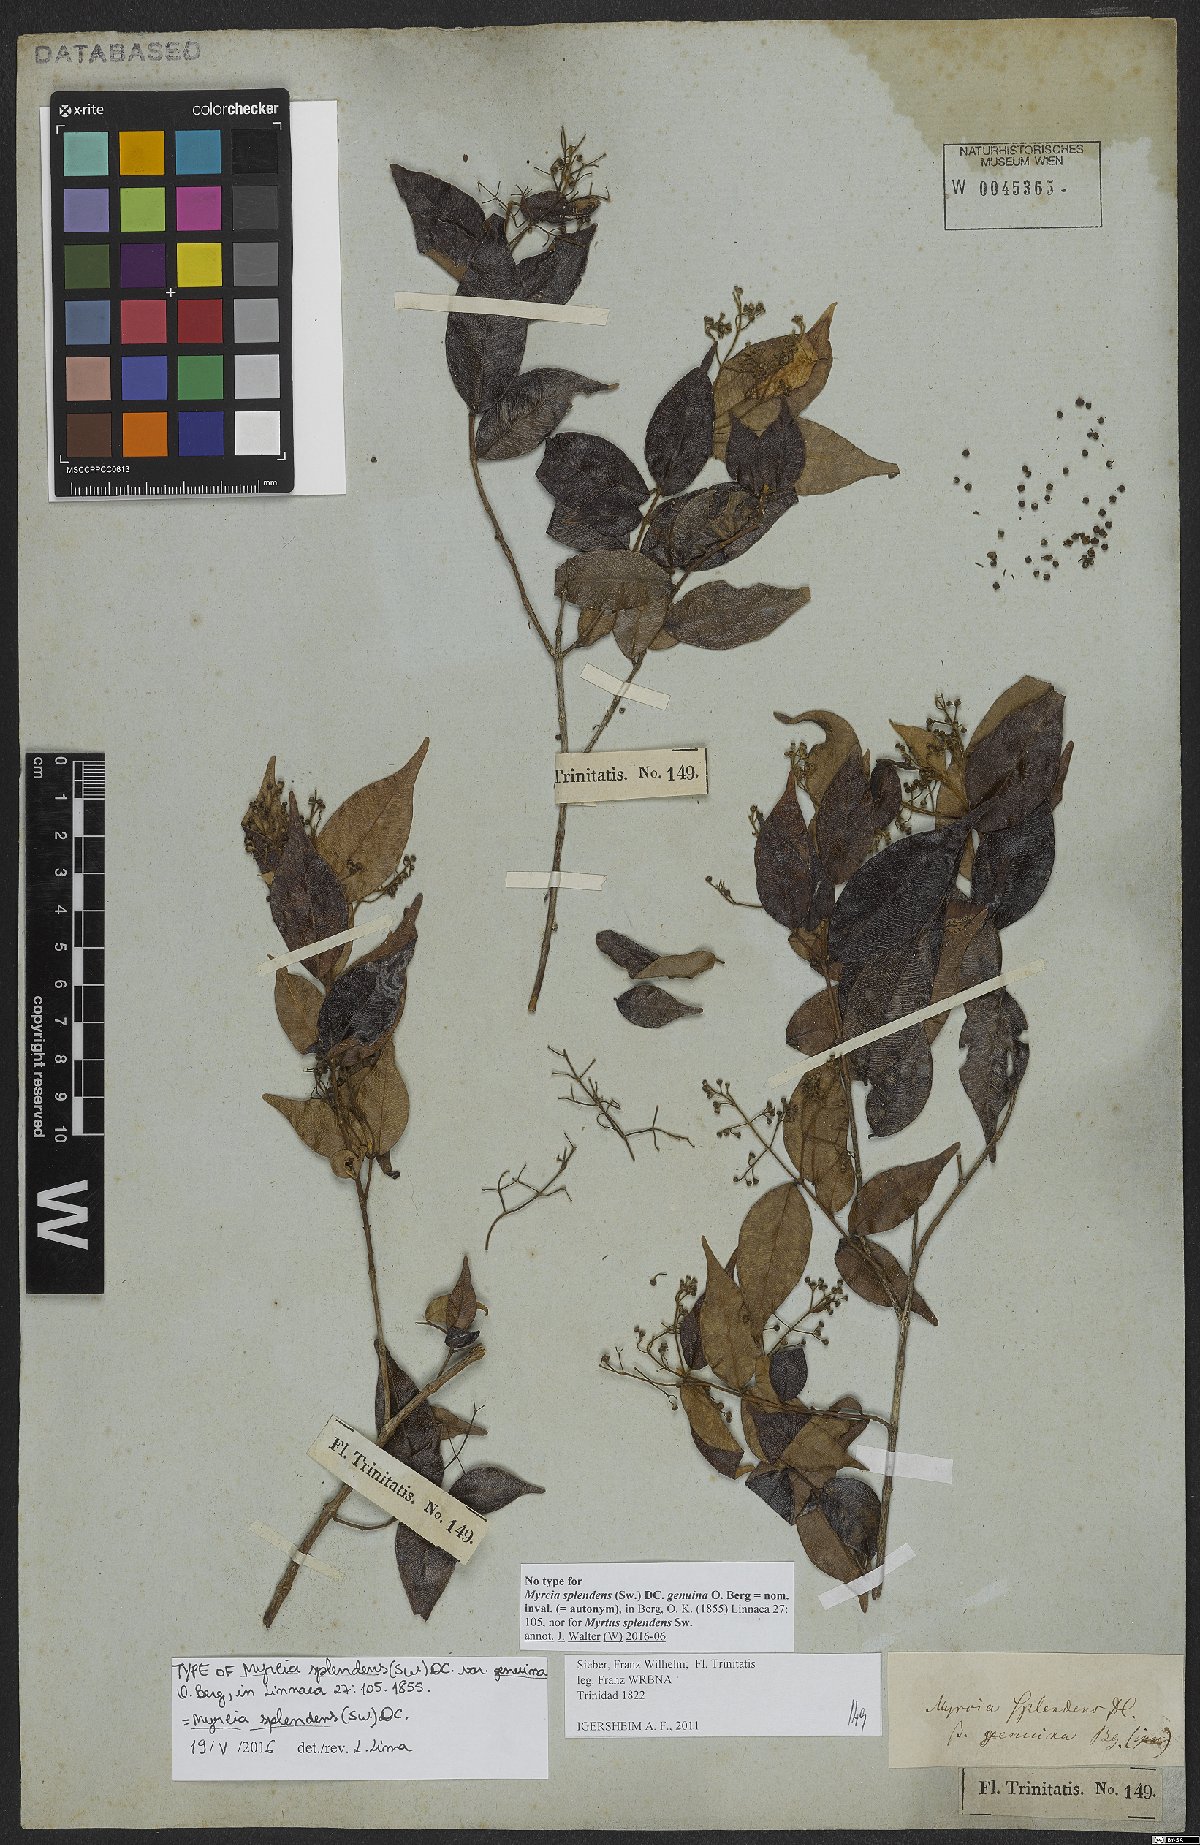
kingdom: Plantae
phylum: Tracheophyta
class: Magnoliopsida
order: Myrtales
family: Myrtaceae
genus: Myrcia
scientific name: Myrcia splendens
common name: Surinam cherry
